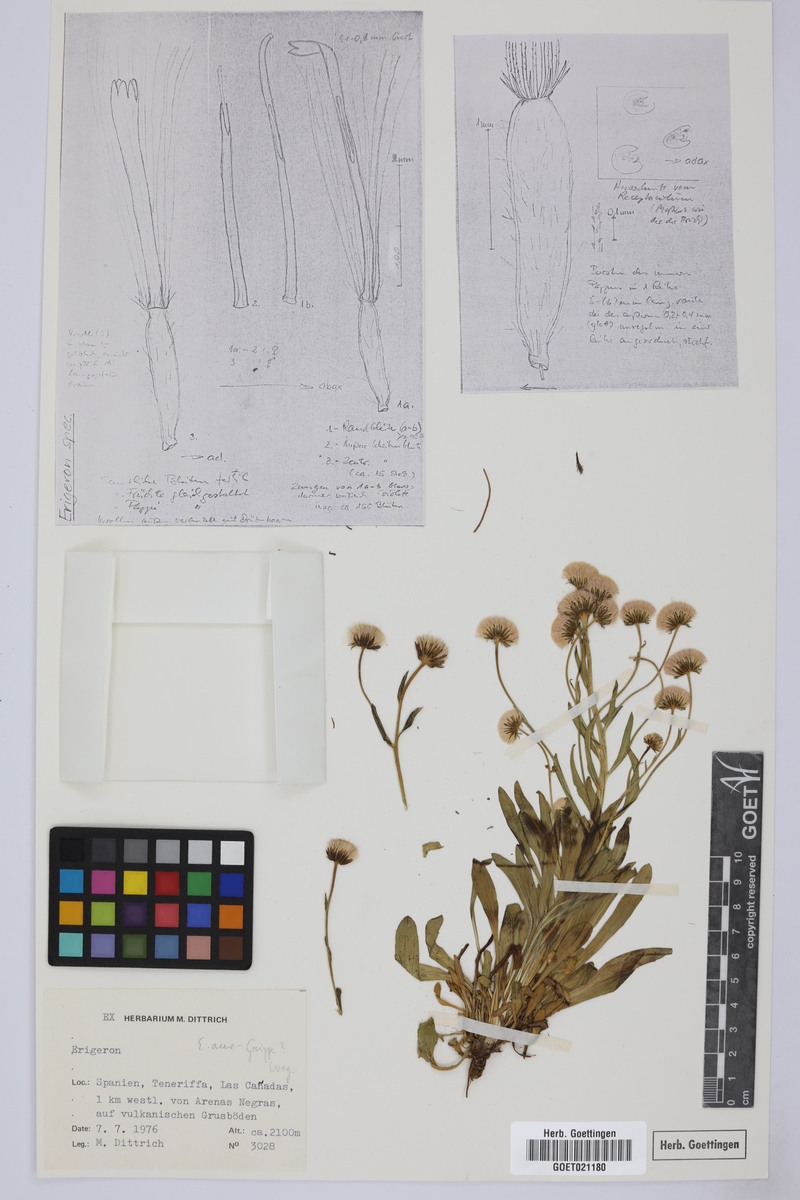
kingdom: Plantae
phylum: Tracheophyta
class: Magnoliopsida
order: Asterales
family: Asteraceae
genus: Erigeron
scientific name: Erigeron
